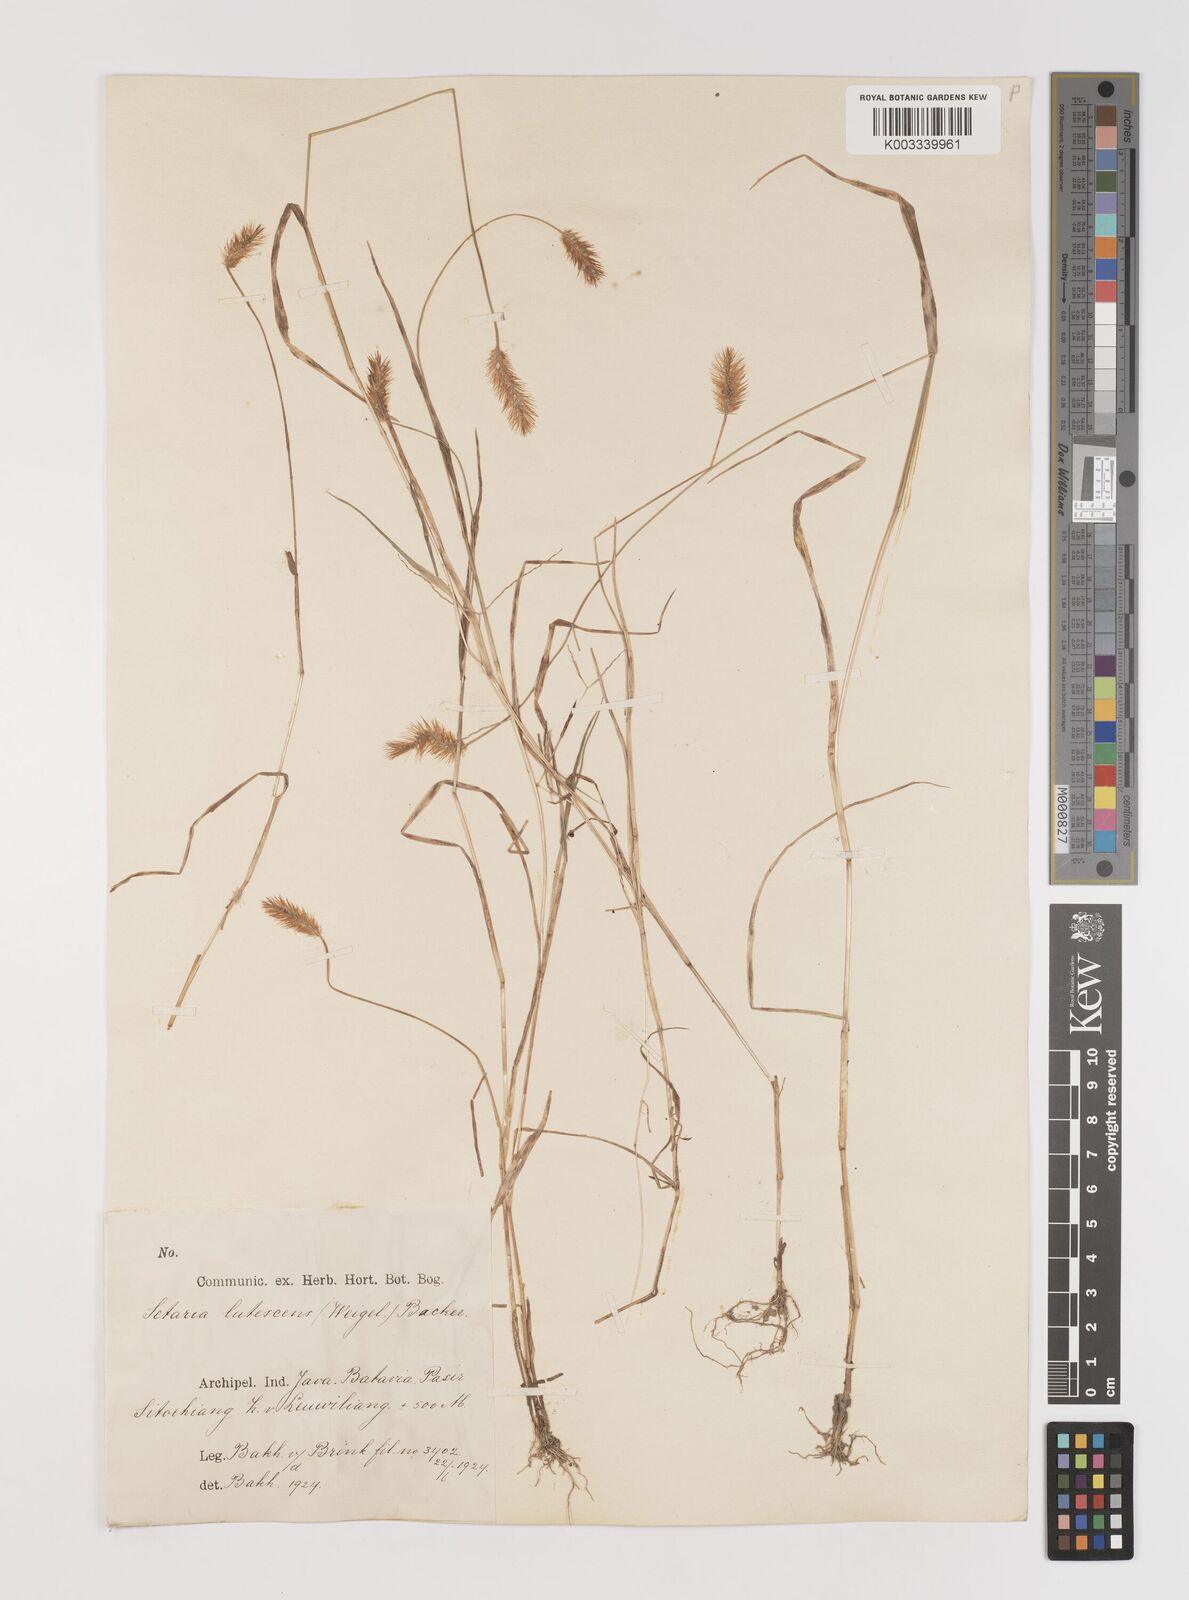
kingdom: Plantae
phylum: Tracheophyta
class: Liliopsida
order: Poales
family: Poaceae
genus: Setaria
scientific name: Setaria parviflora
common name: Knotroot bristle-grass
